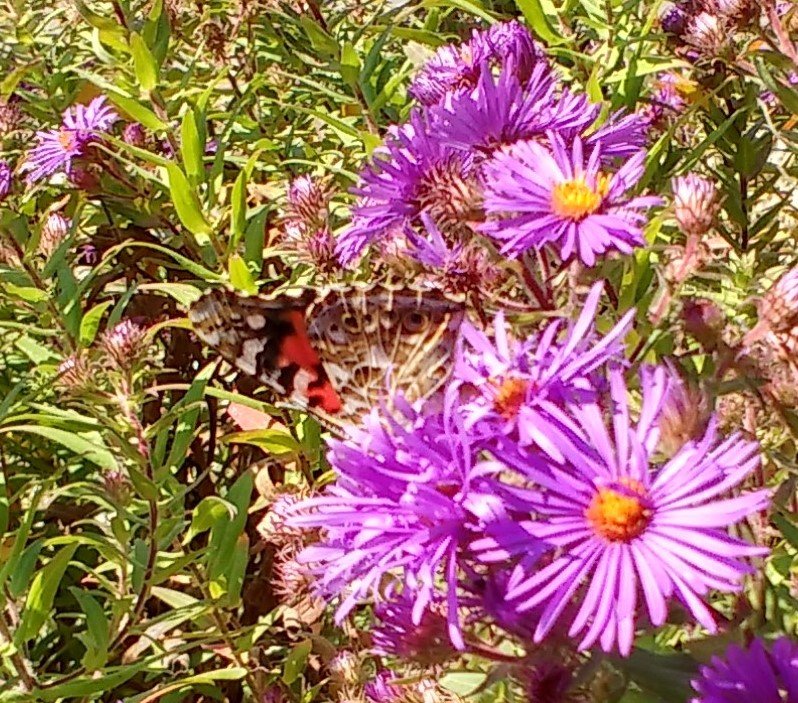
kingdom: Animalia
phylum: Arthropoda
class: Insecta
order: Lepidoptera
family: Nymphalidae
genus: Vanessa
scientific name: Vanessa cardui
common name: Painted Lady
